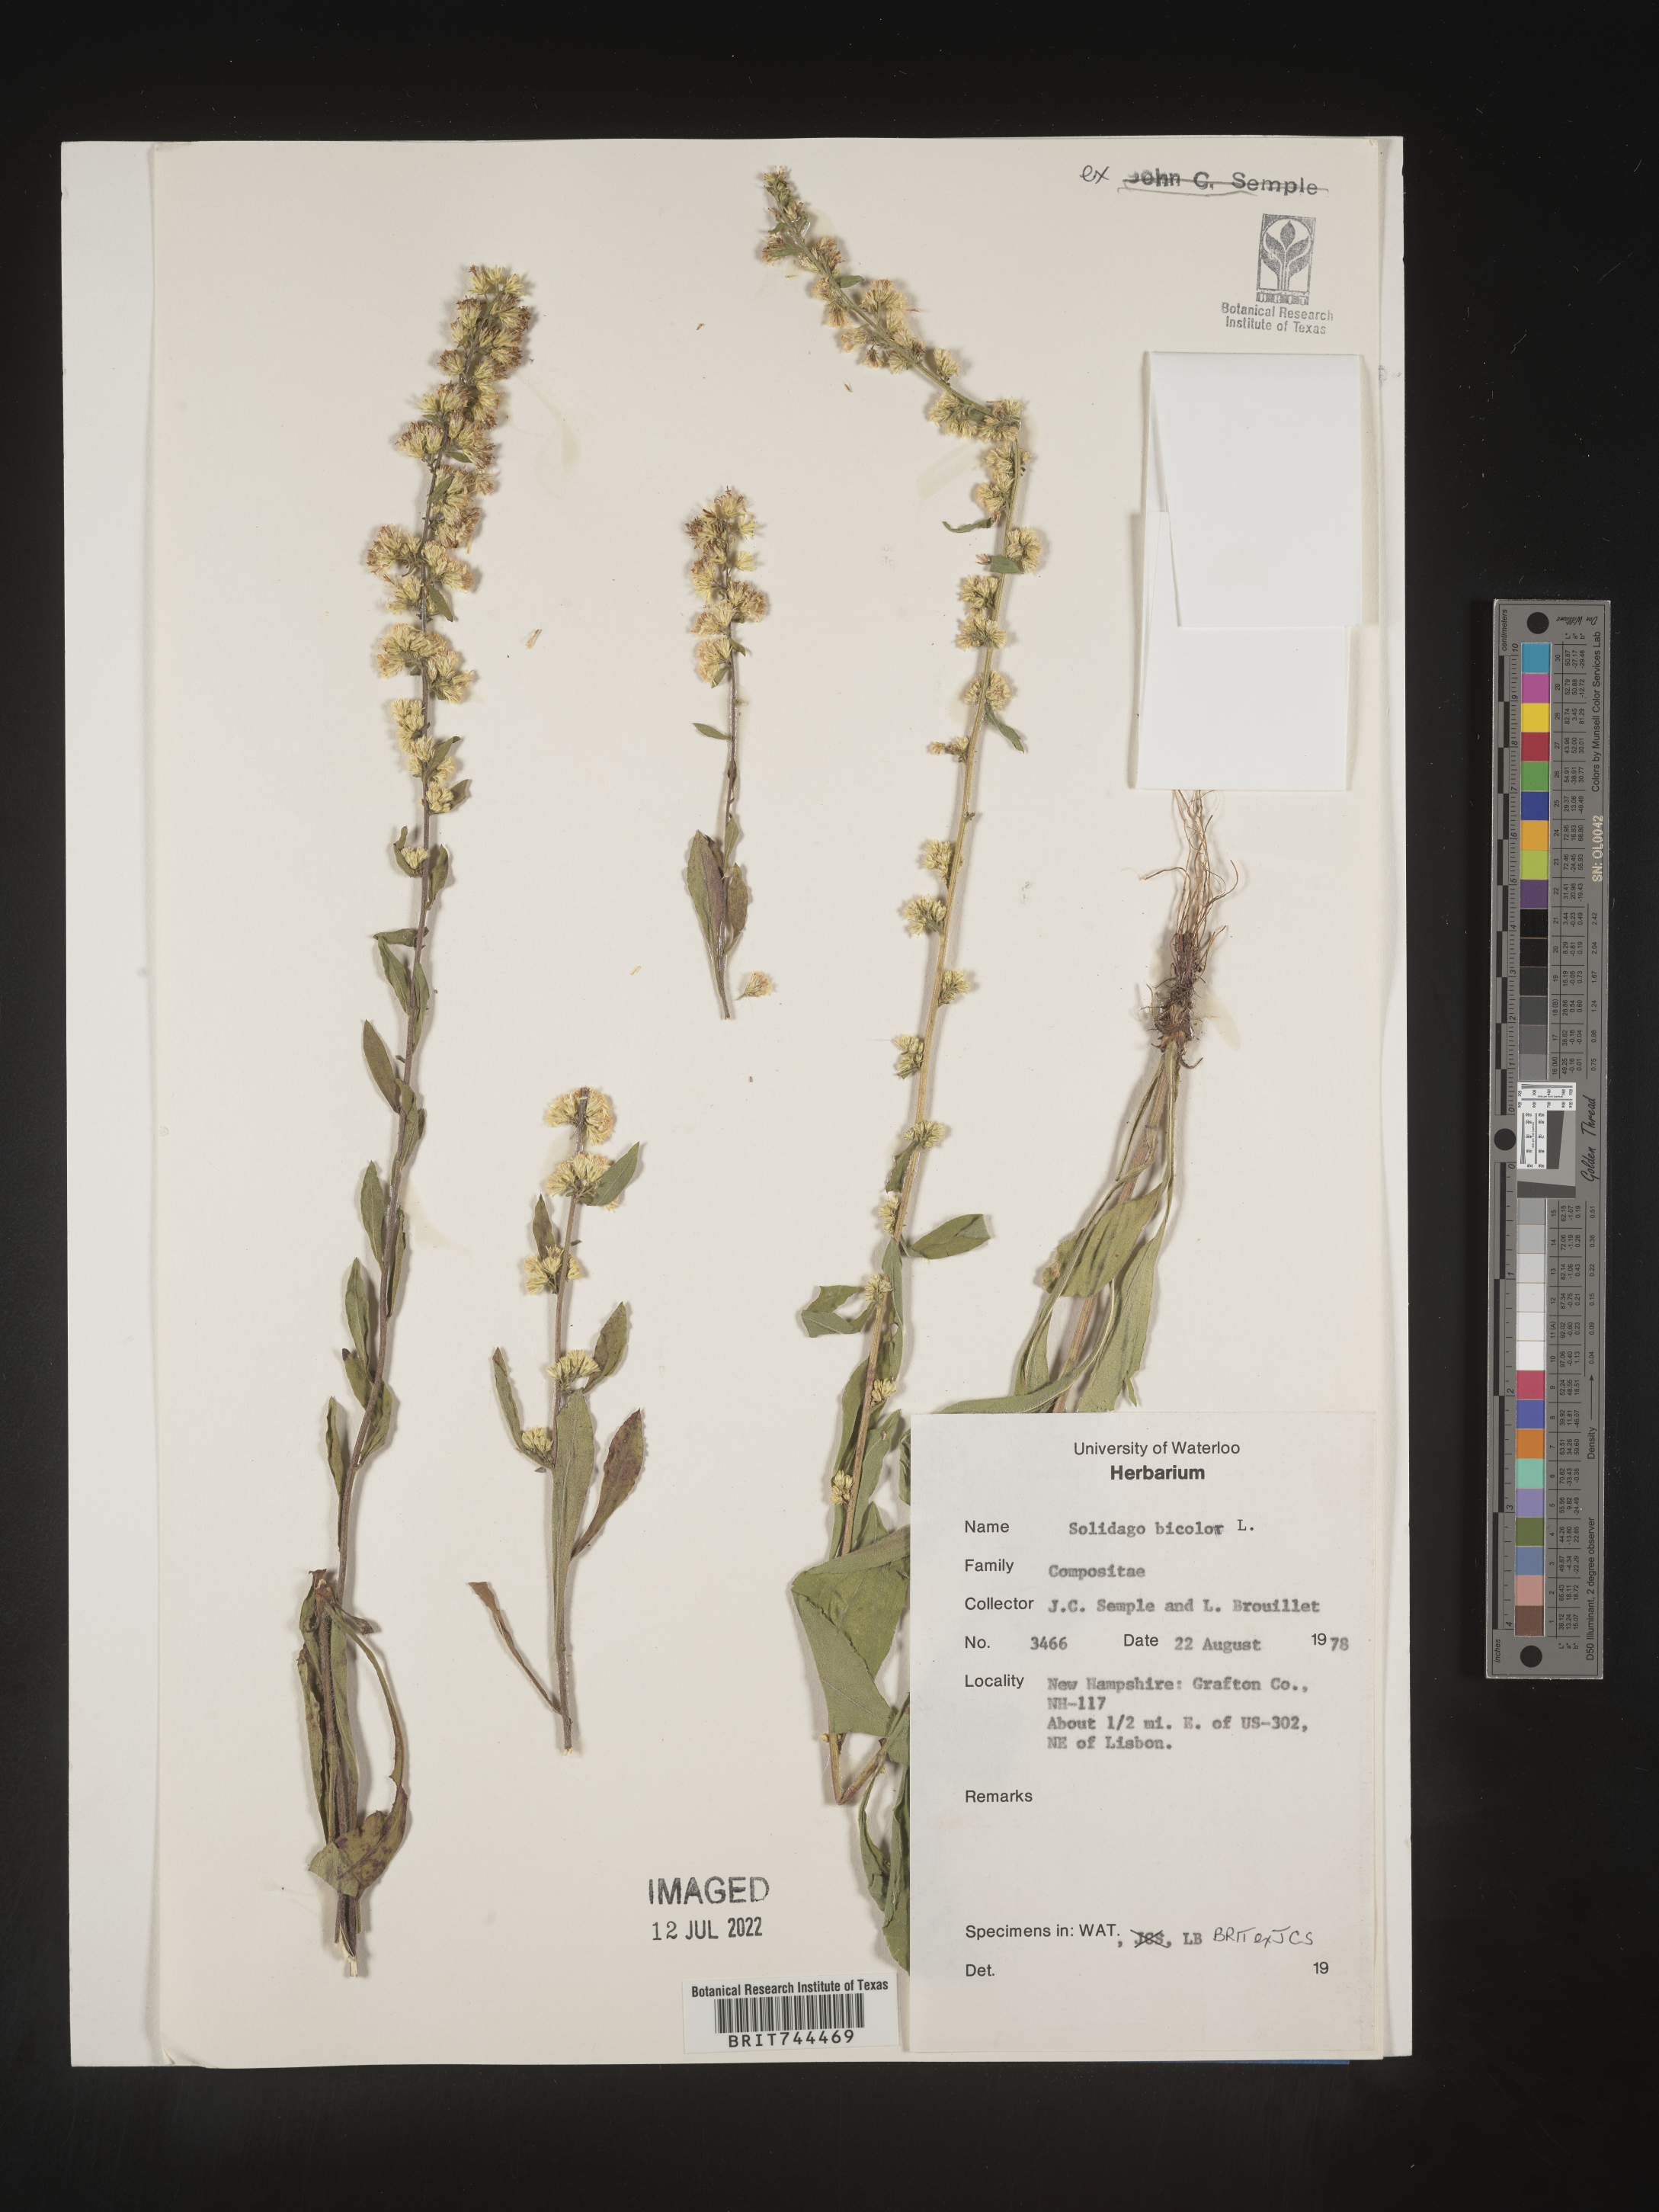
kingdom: Plantae
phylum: Tracheophyta
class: Magnoliopsida
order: Asterales
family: Asteraceae
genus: Solidago
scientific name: Solidago bicolor
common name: Silverrod
